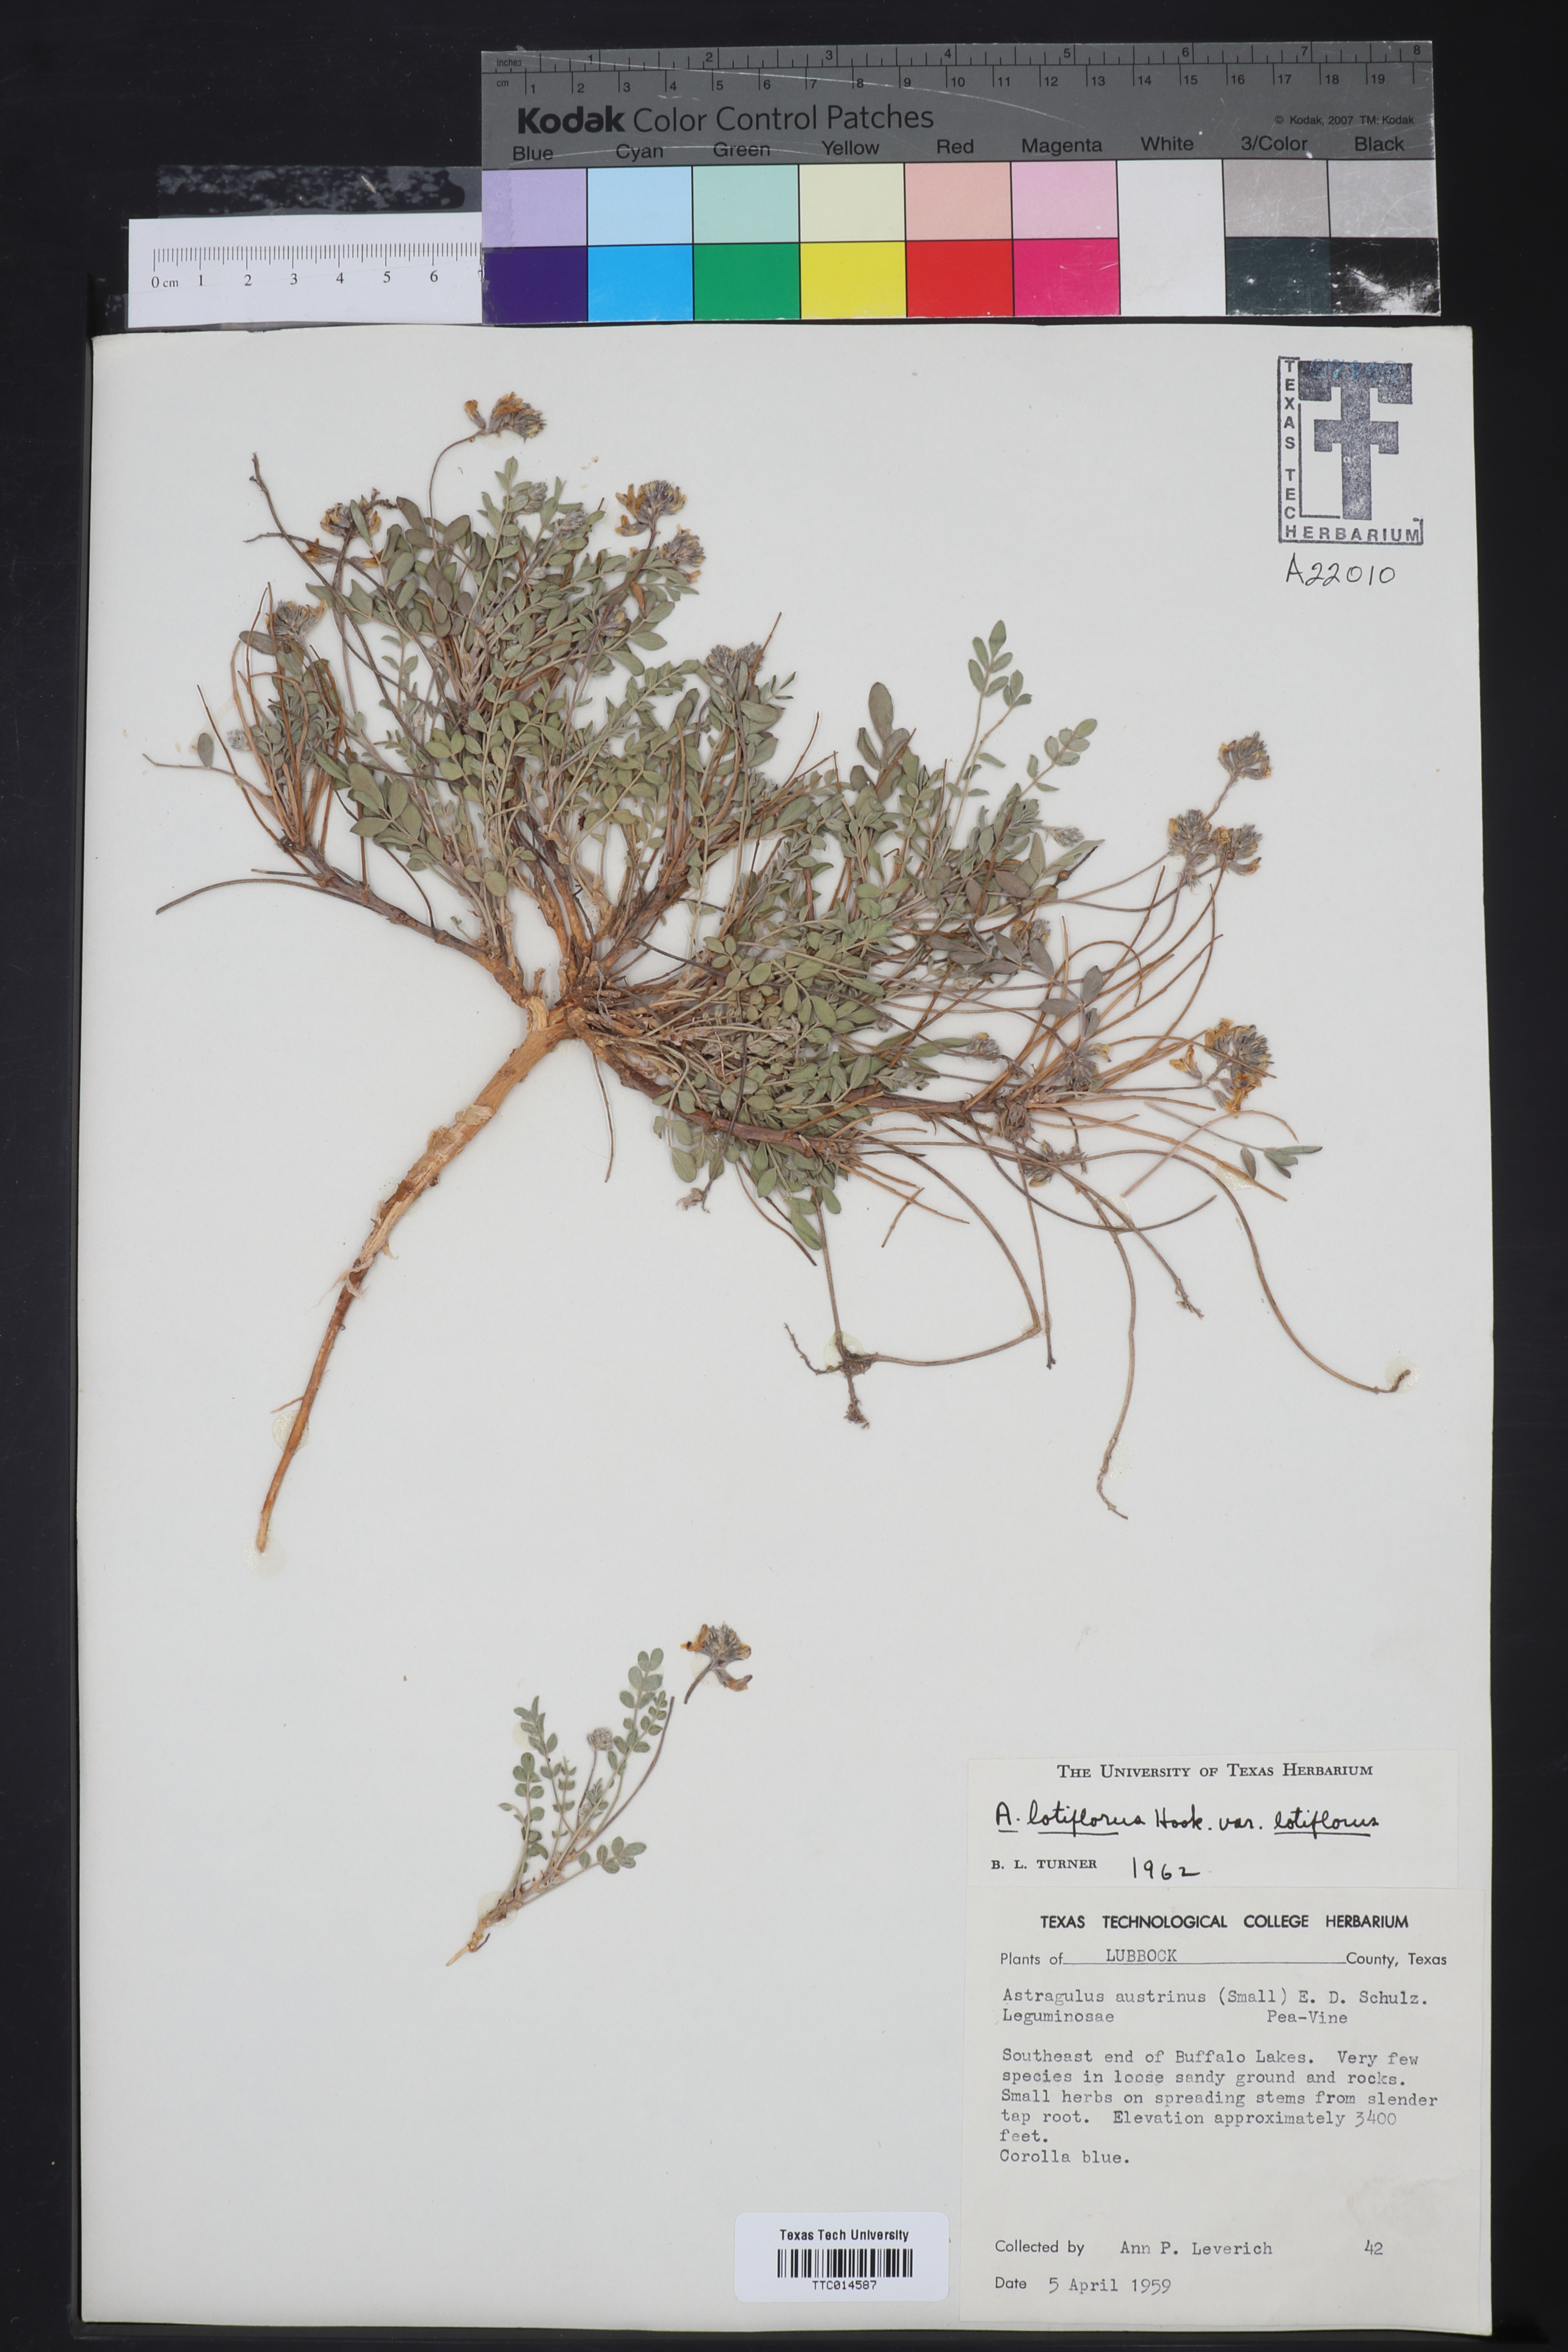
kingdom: Plantae
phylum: Tracheophyta
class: Magnoliopsida
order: Fabales
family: Fabaceae
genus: Astragalus
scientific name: Astragalus lotiflorus
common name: Lotus milk-vetch
